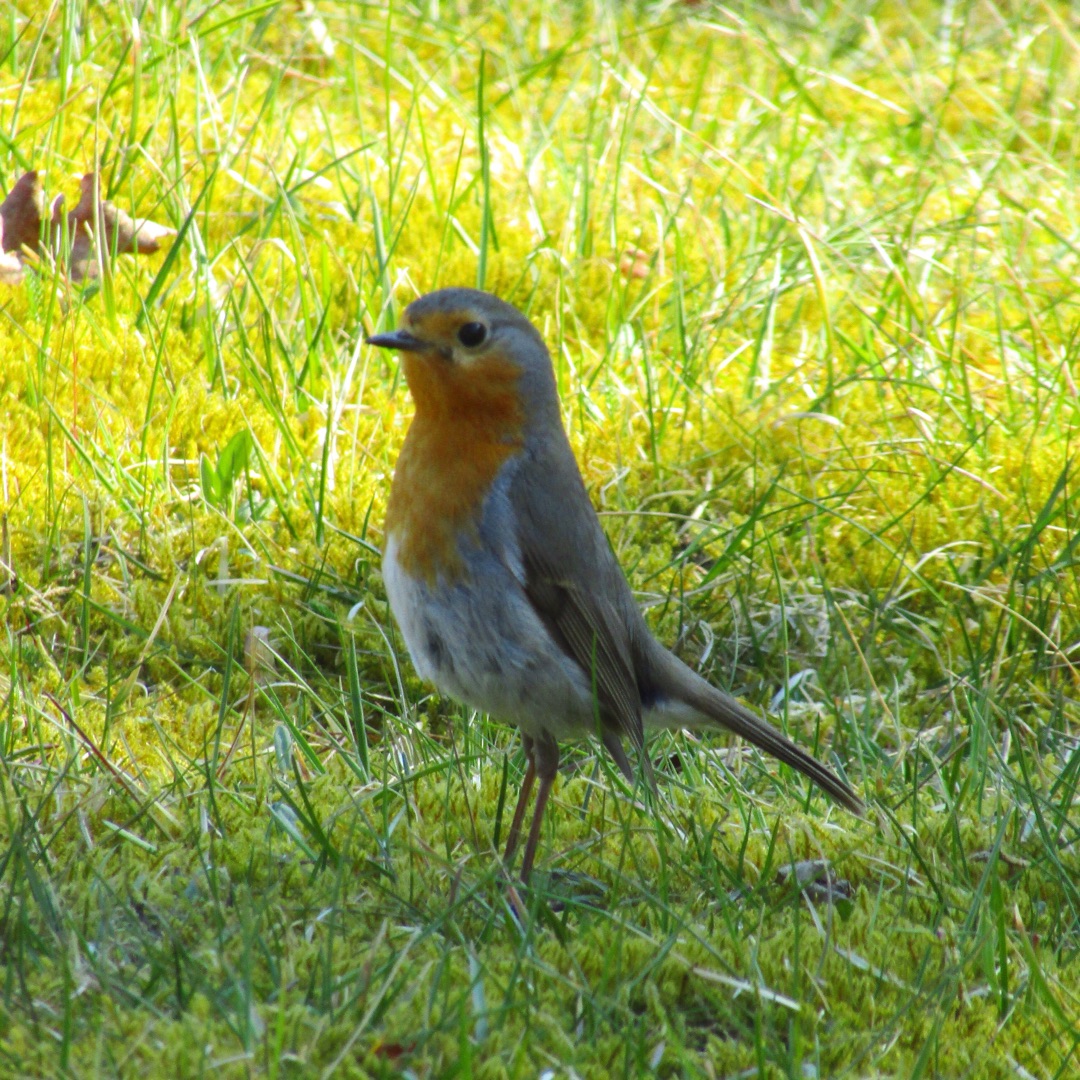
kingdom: Animalia
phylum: Chordata
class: Aves
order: Passeriformes
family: Muscicapidae
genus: Erithacus
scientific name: Erithacus rubecula
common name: Rødhals/rødkælk
